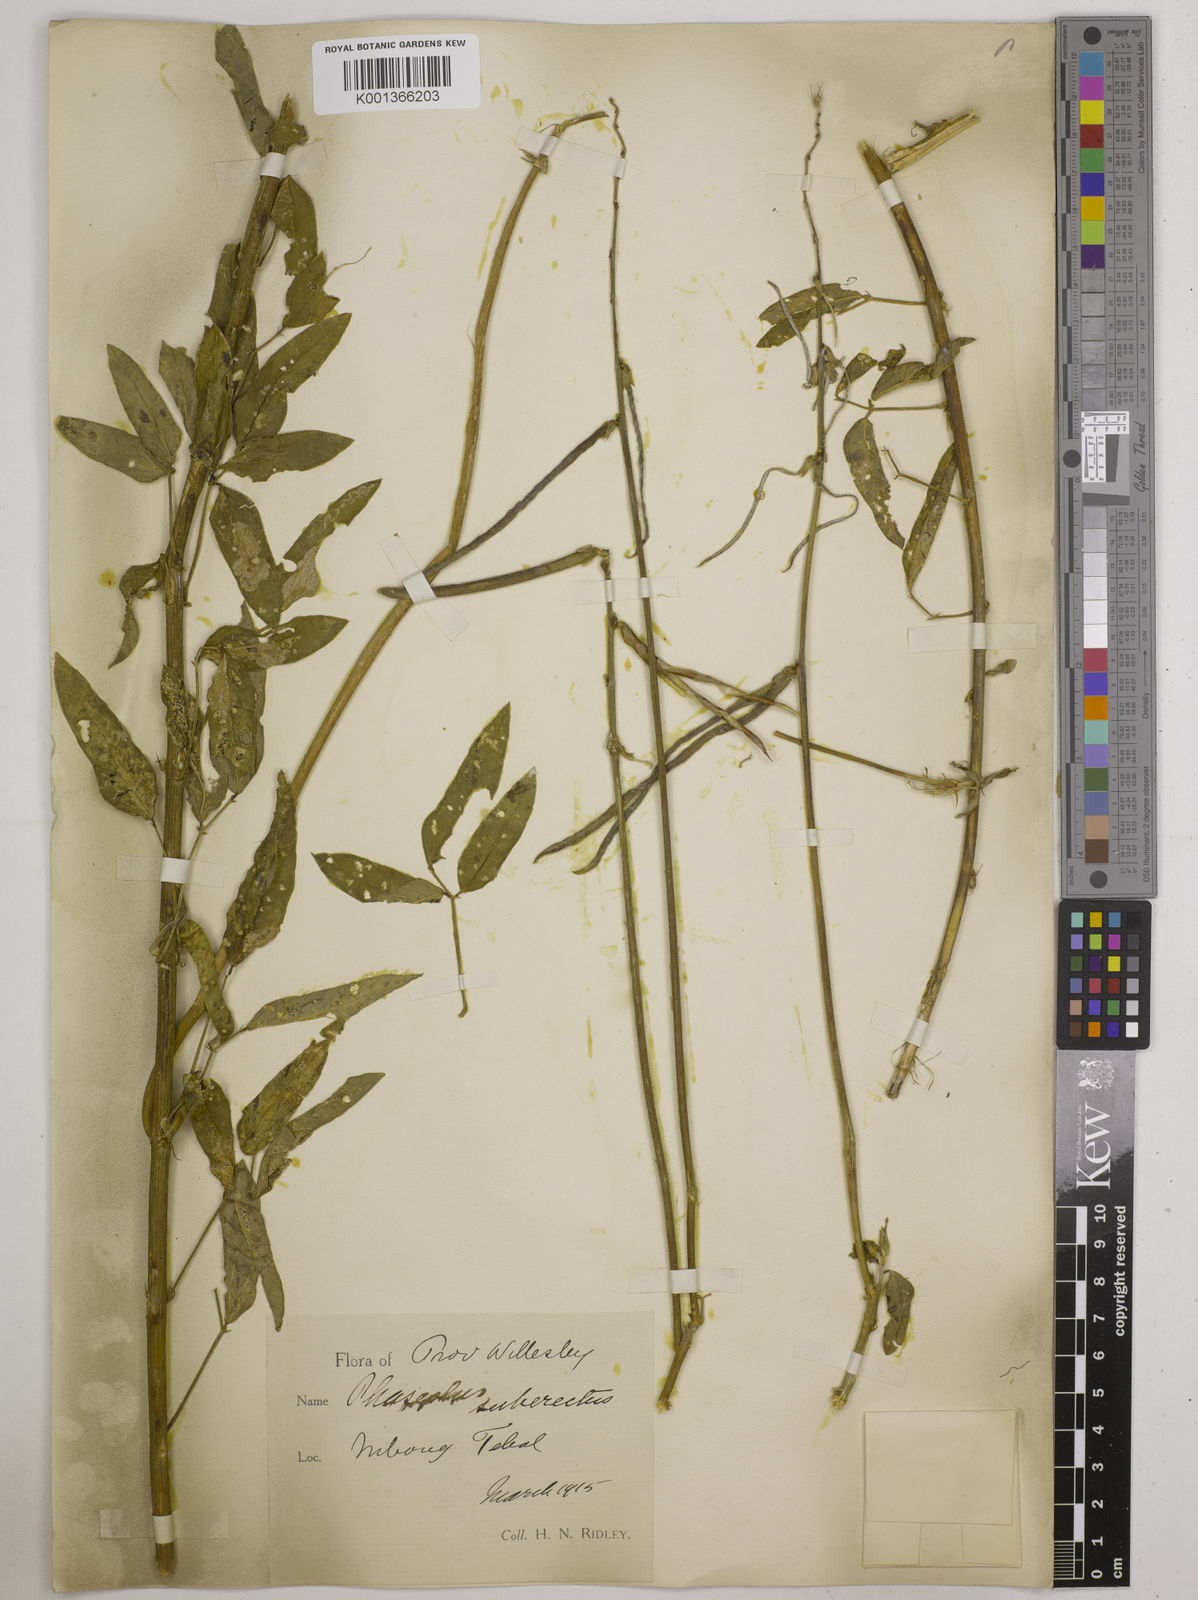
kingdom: Plantae
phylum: Tracheophyta
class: Magnoliopsida
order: Fabales
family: Fabaceae
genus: Macroptilium
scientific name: Macroptilium lathyroides
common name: Wild bushbean
